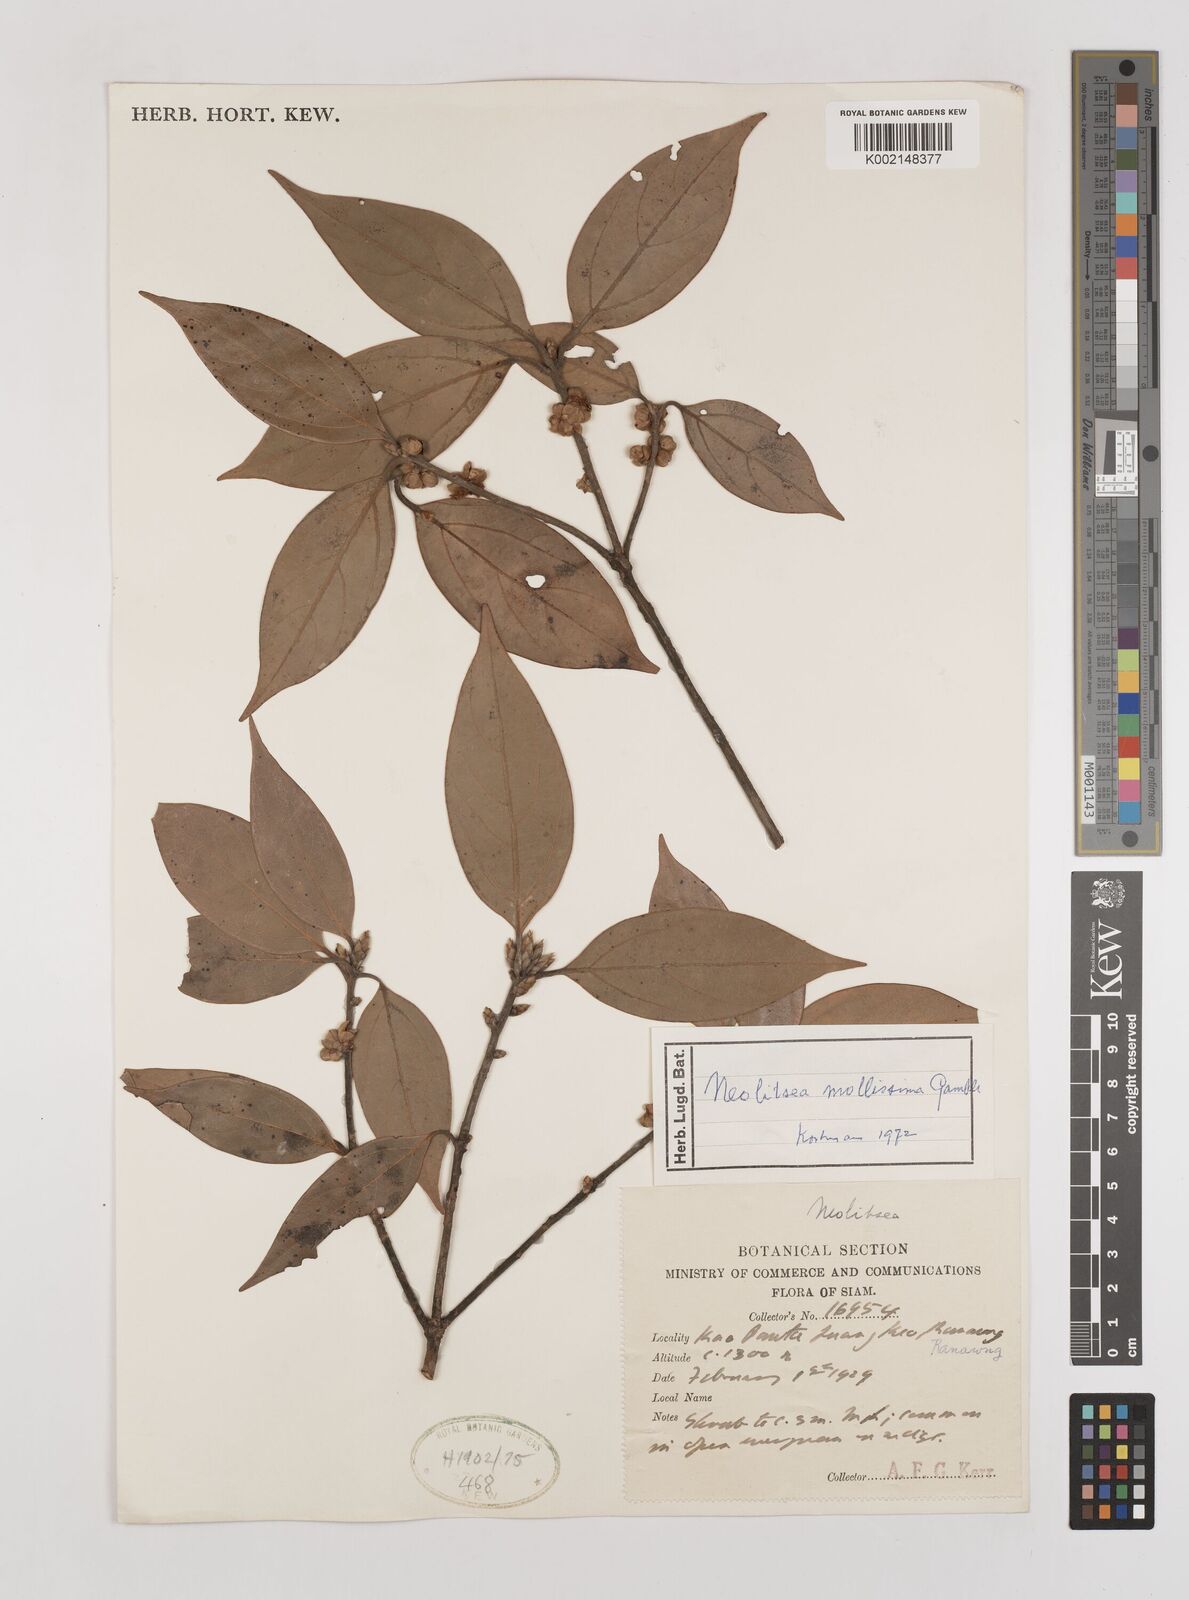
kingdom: Plantae
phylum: Tracheophyta
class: Magnoliopsida
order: Laurales
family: Lauraceae
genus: Neolitsea
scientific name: Neolitsea mollissima
